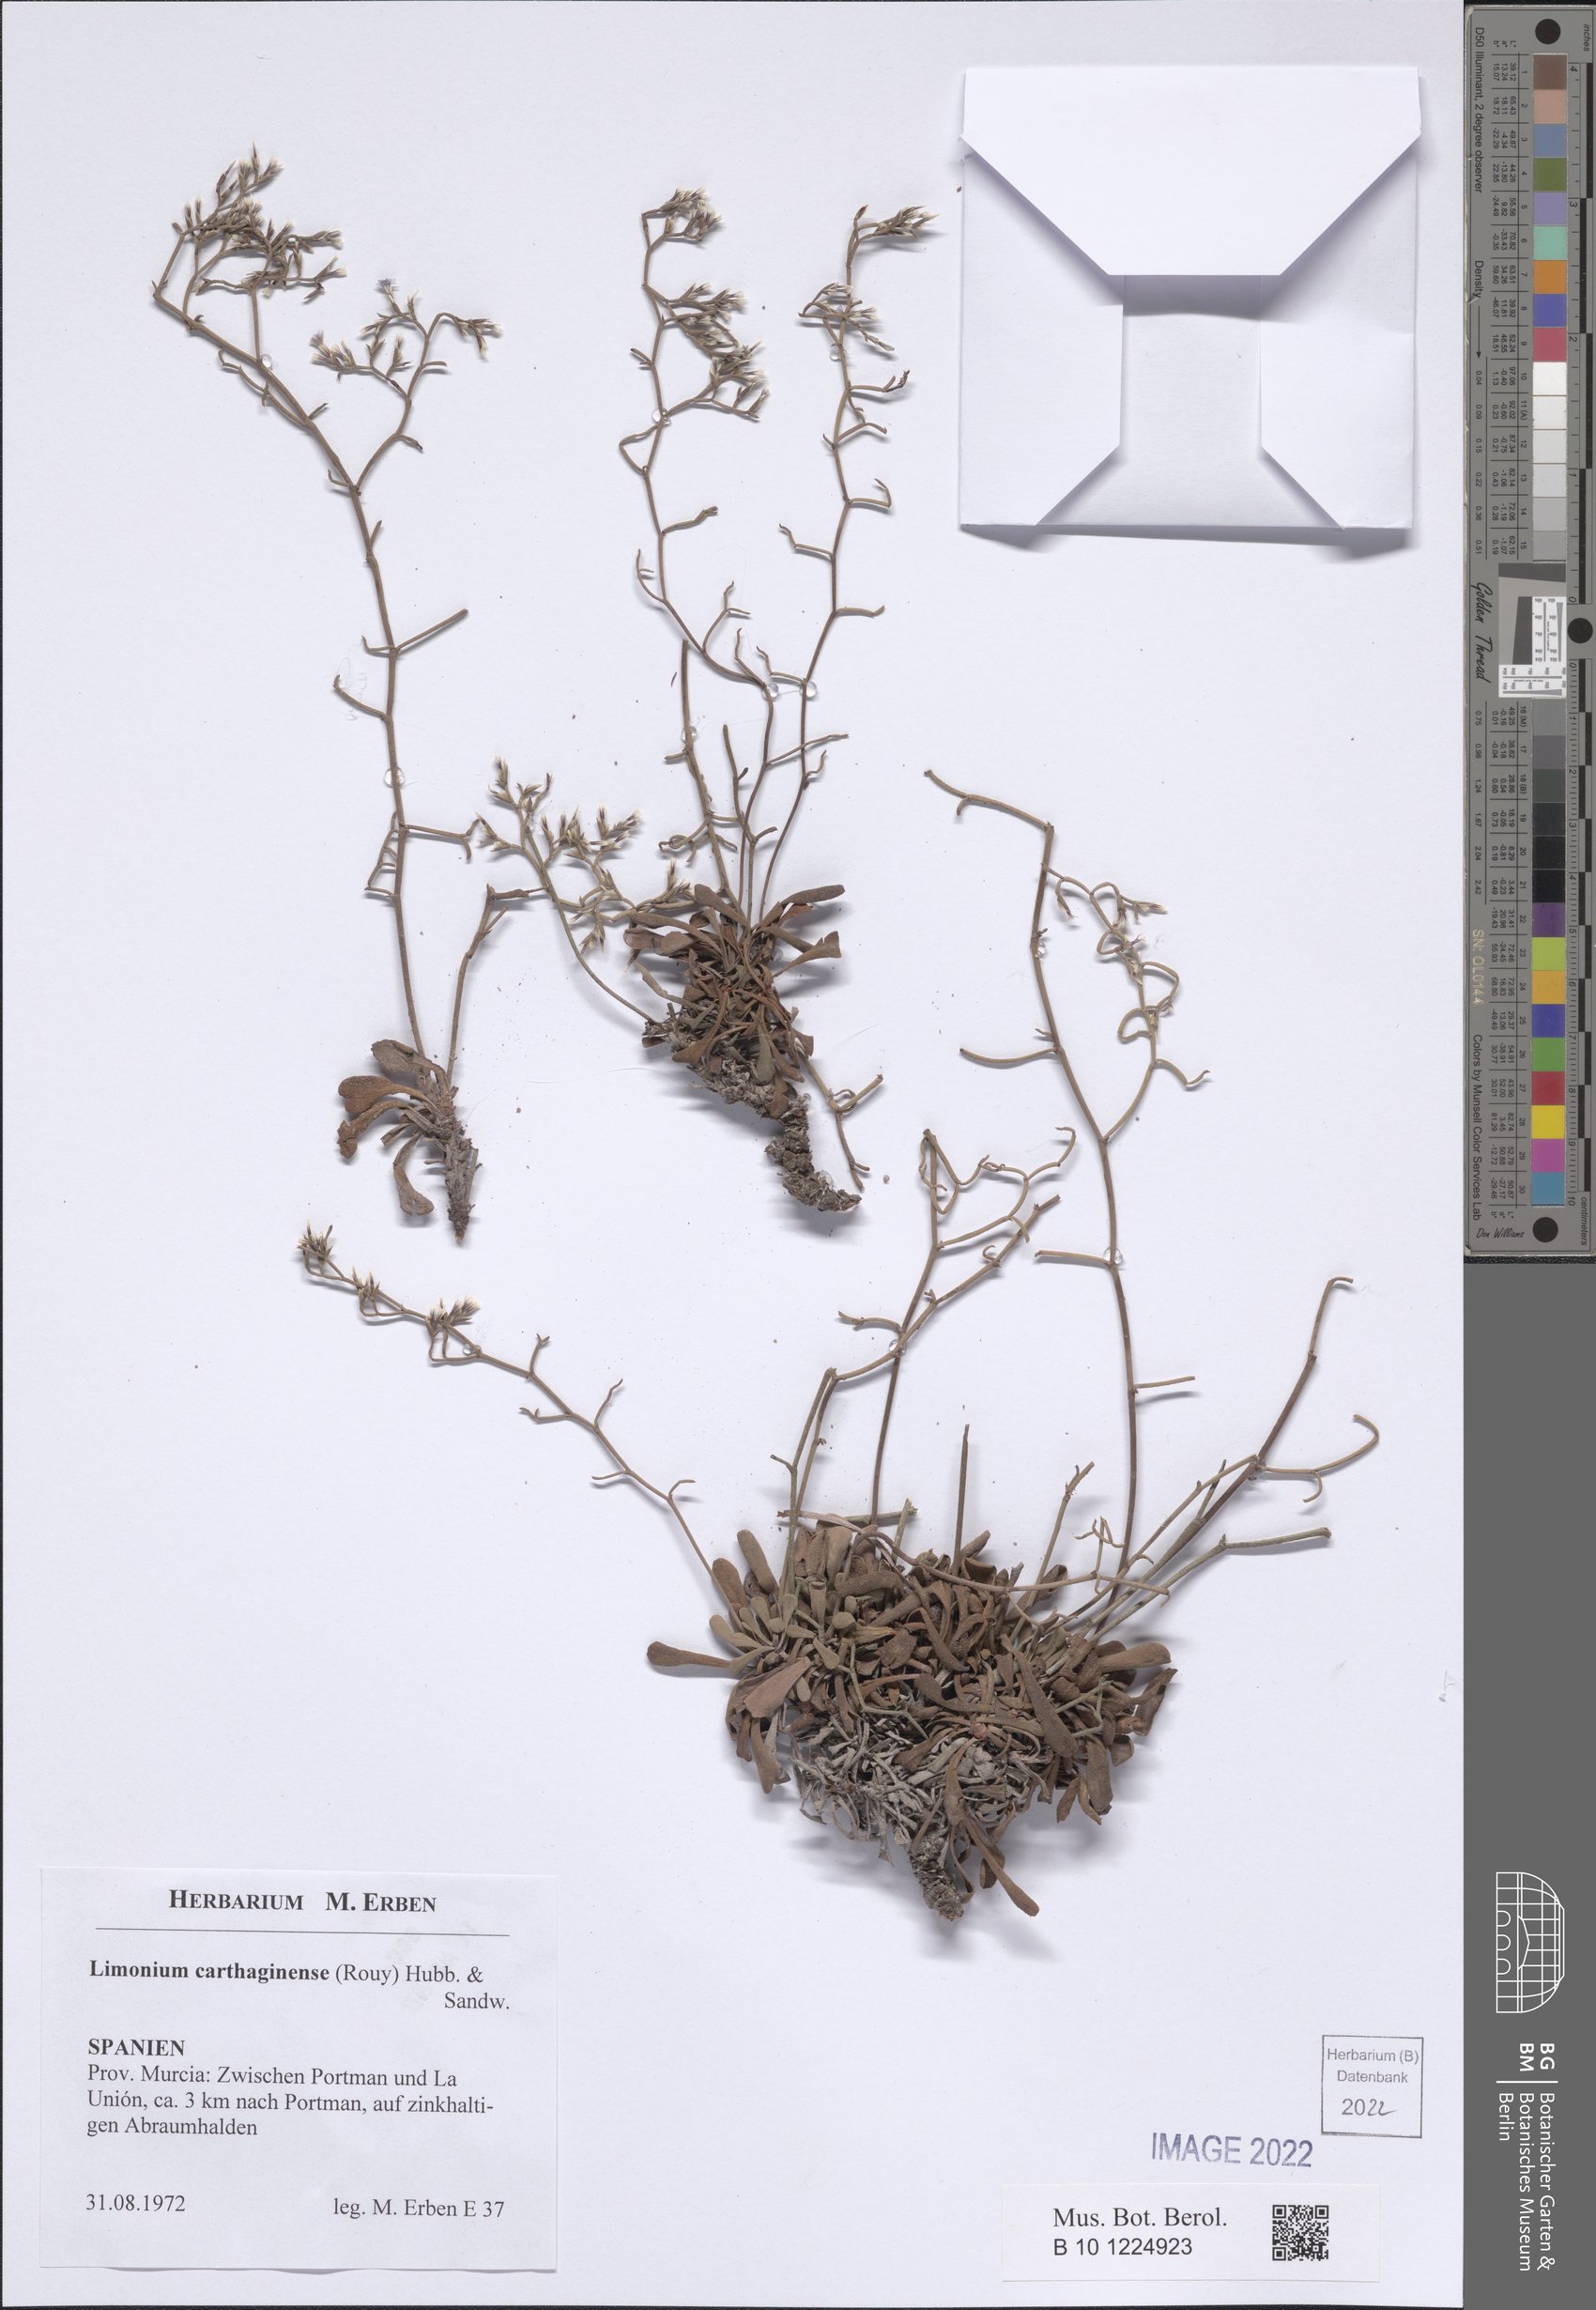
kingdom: Plantae
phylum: Tracheophyta
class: Magnoliopsida
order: Caryophyllales
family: Plumbaginaceae
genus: Limonium
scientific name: Limonium carthaginense
